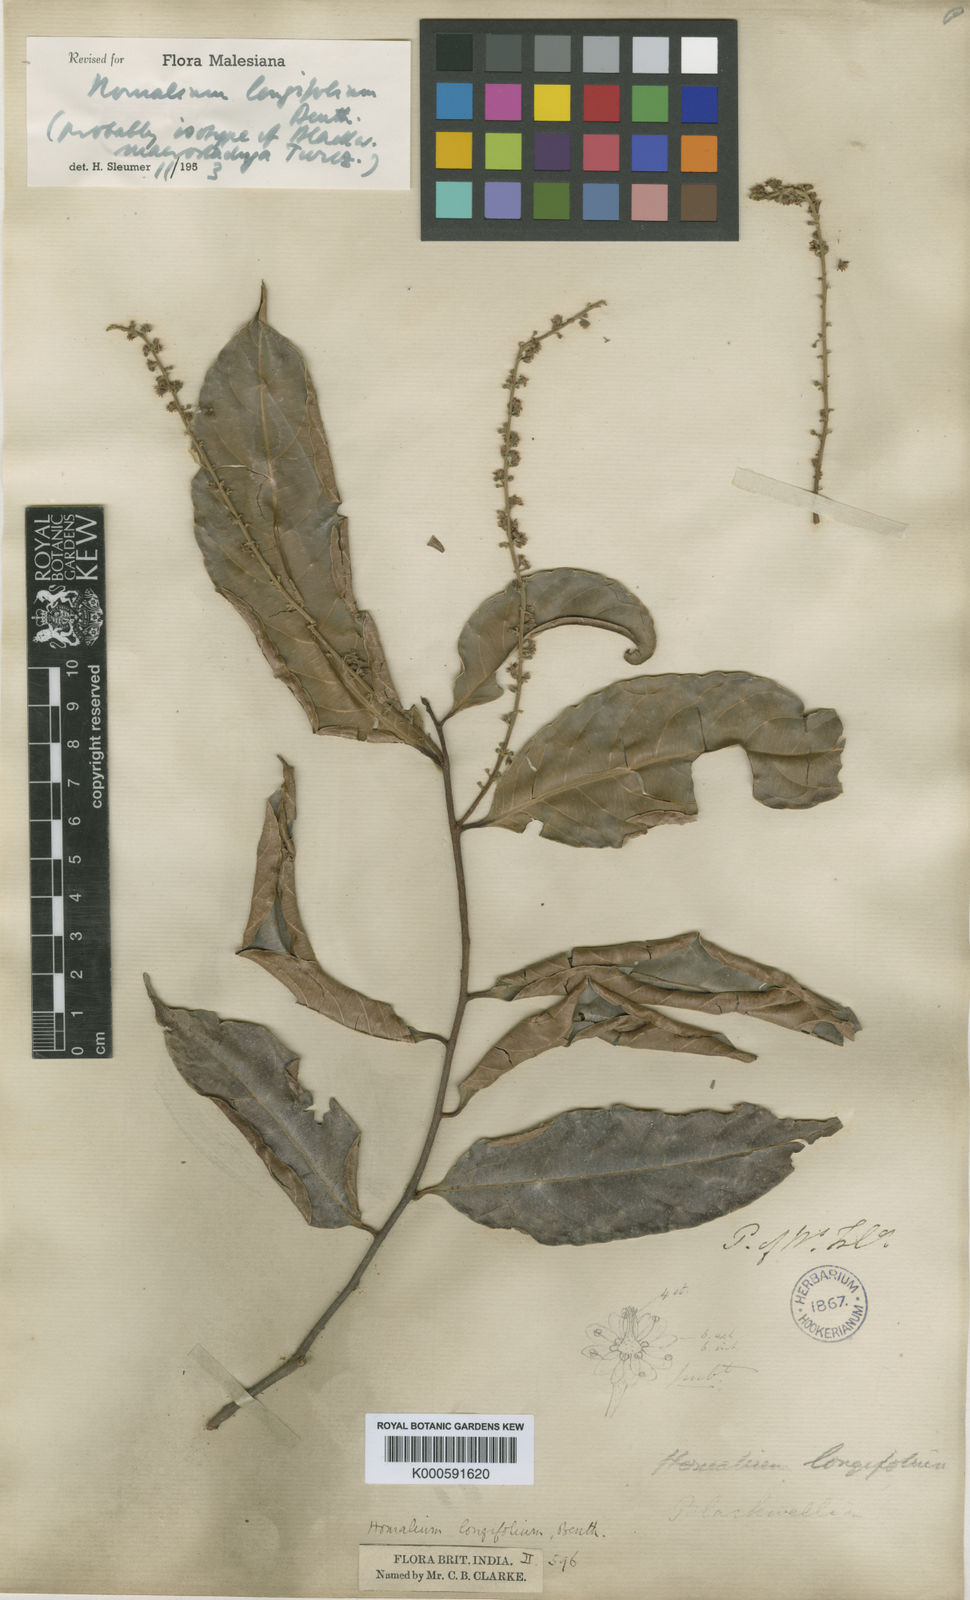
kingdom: Plantae
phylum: Tracheophyta
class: Magnoliopsida
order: Malpighiales
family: Salicaceae
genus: Homalium
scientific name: Homalium longifolium
